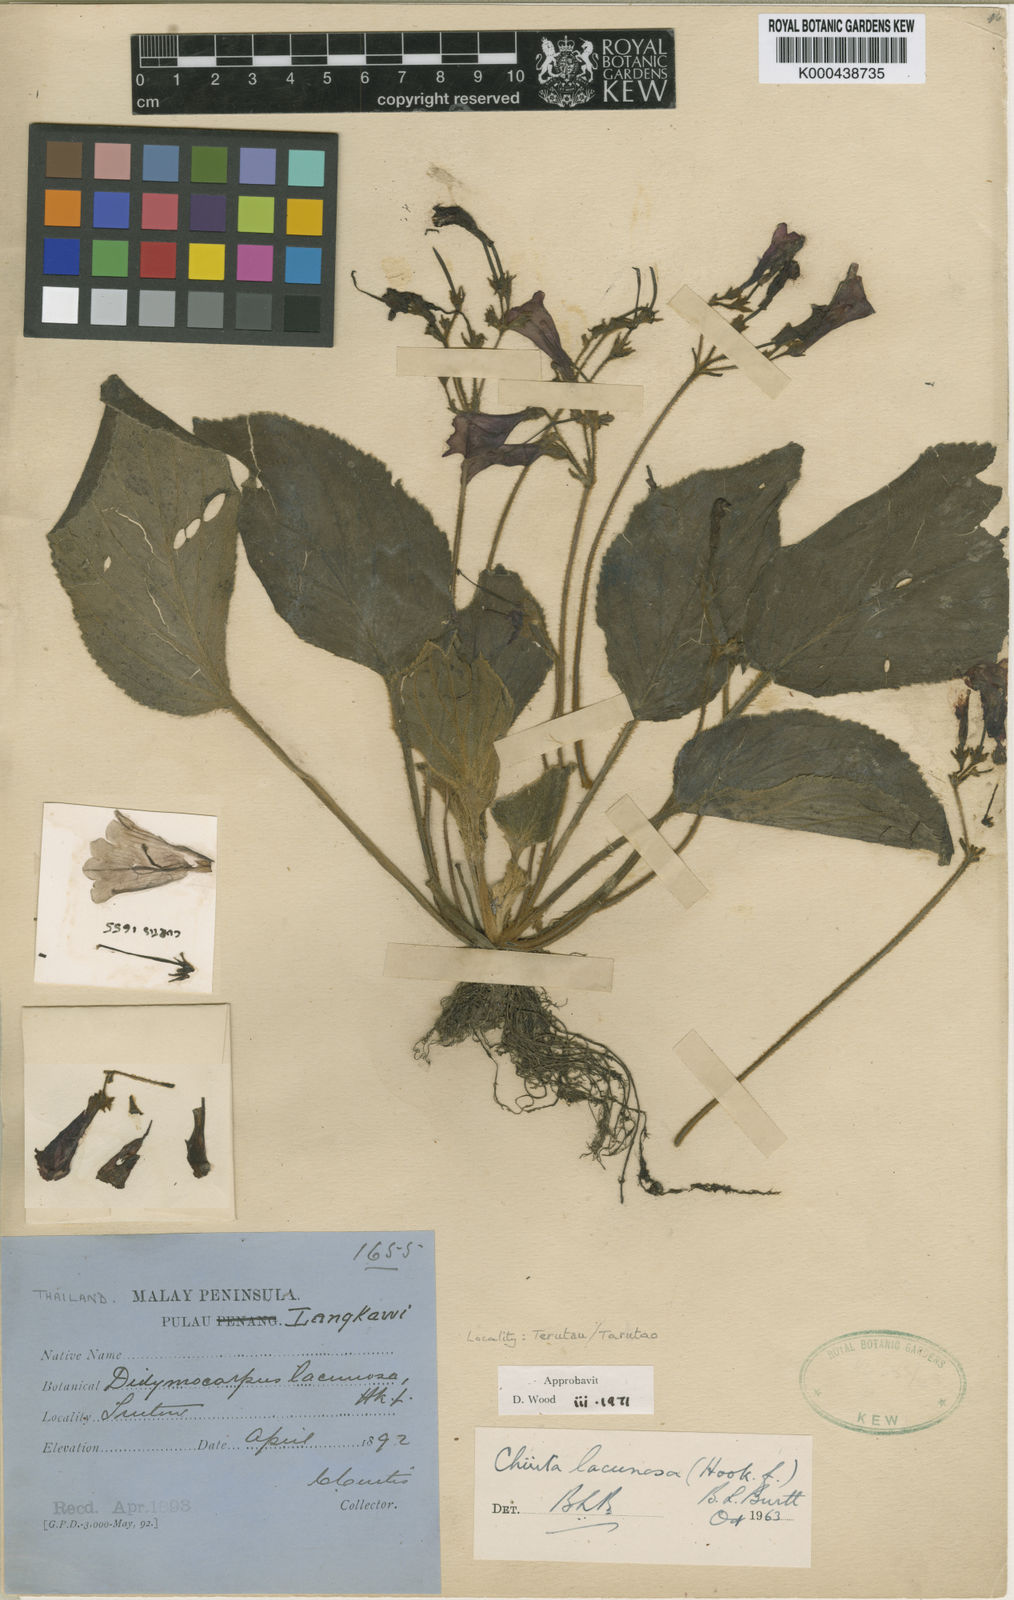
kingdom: Plantae
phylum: Tracheophyta
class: Magnoliopsida
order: Lamiales
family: Gesneriaceae
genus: Damrongia
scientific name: Damrongia lacunosa
